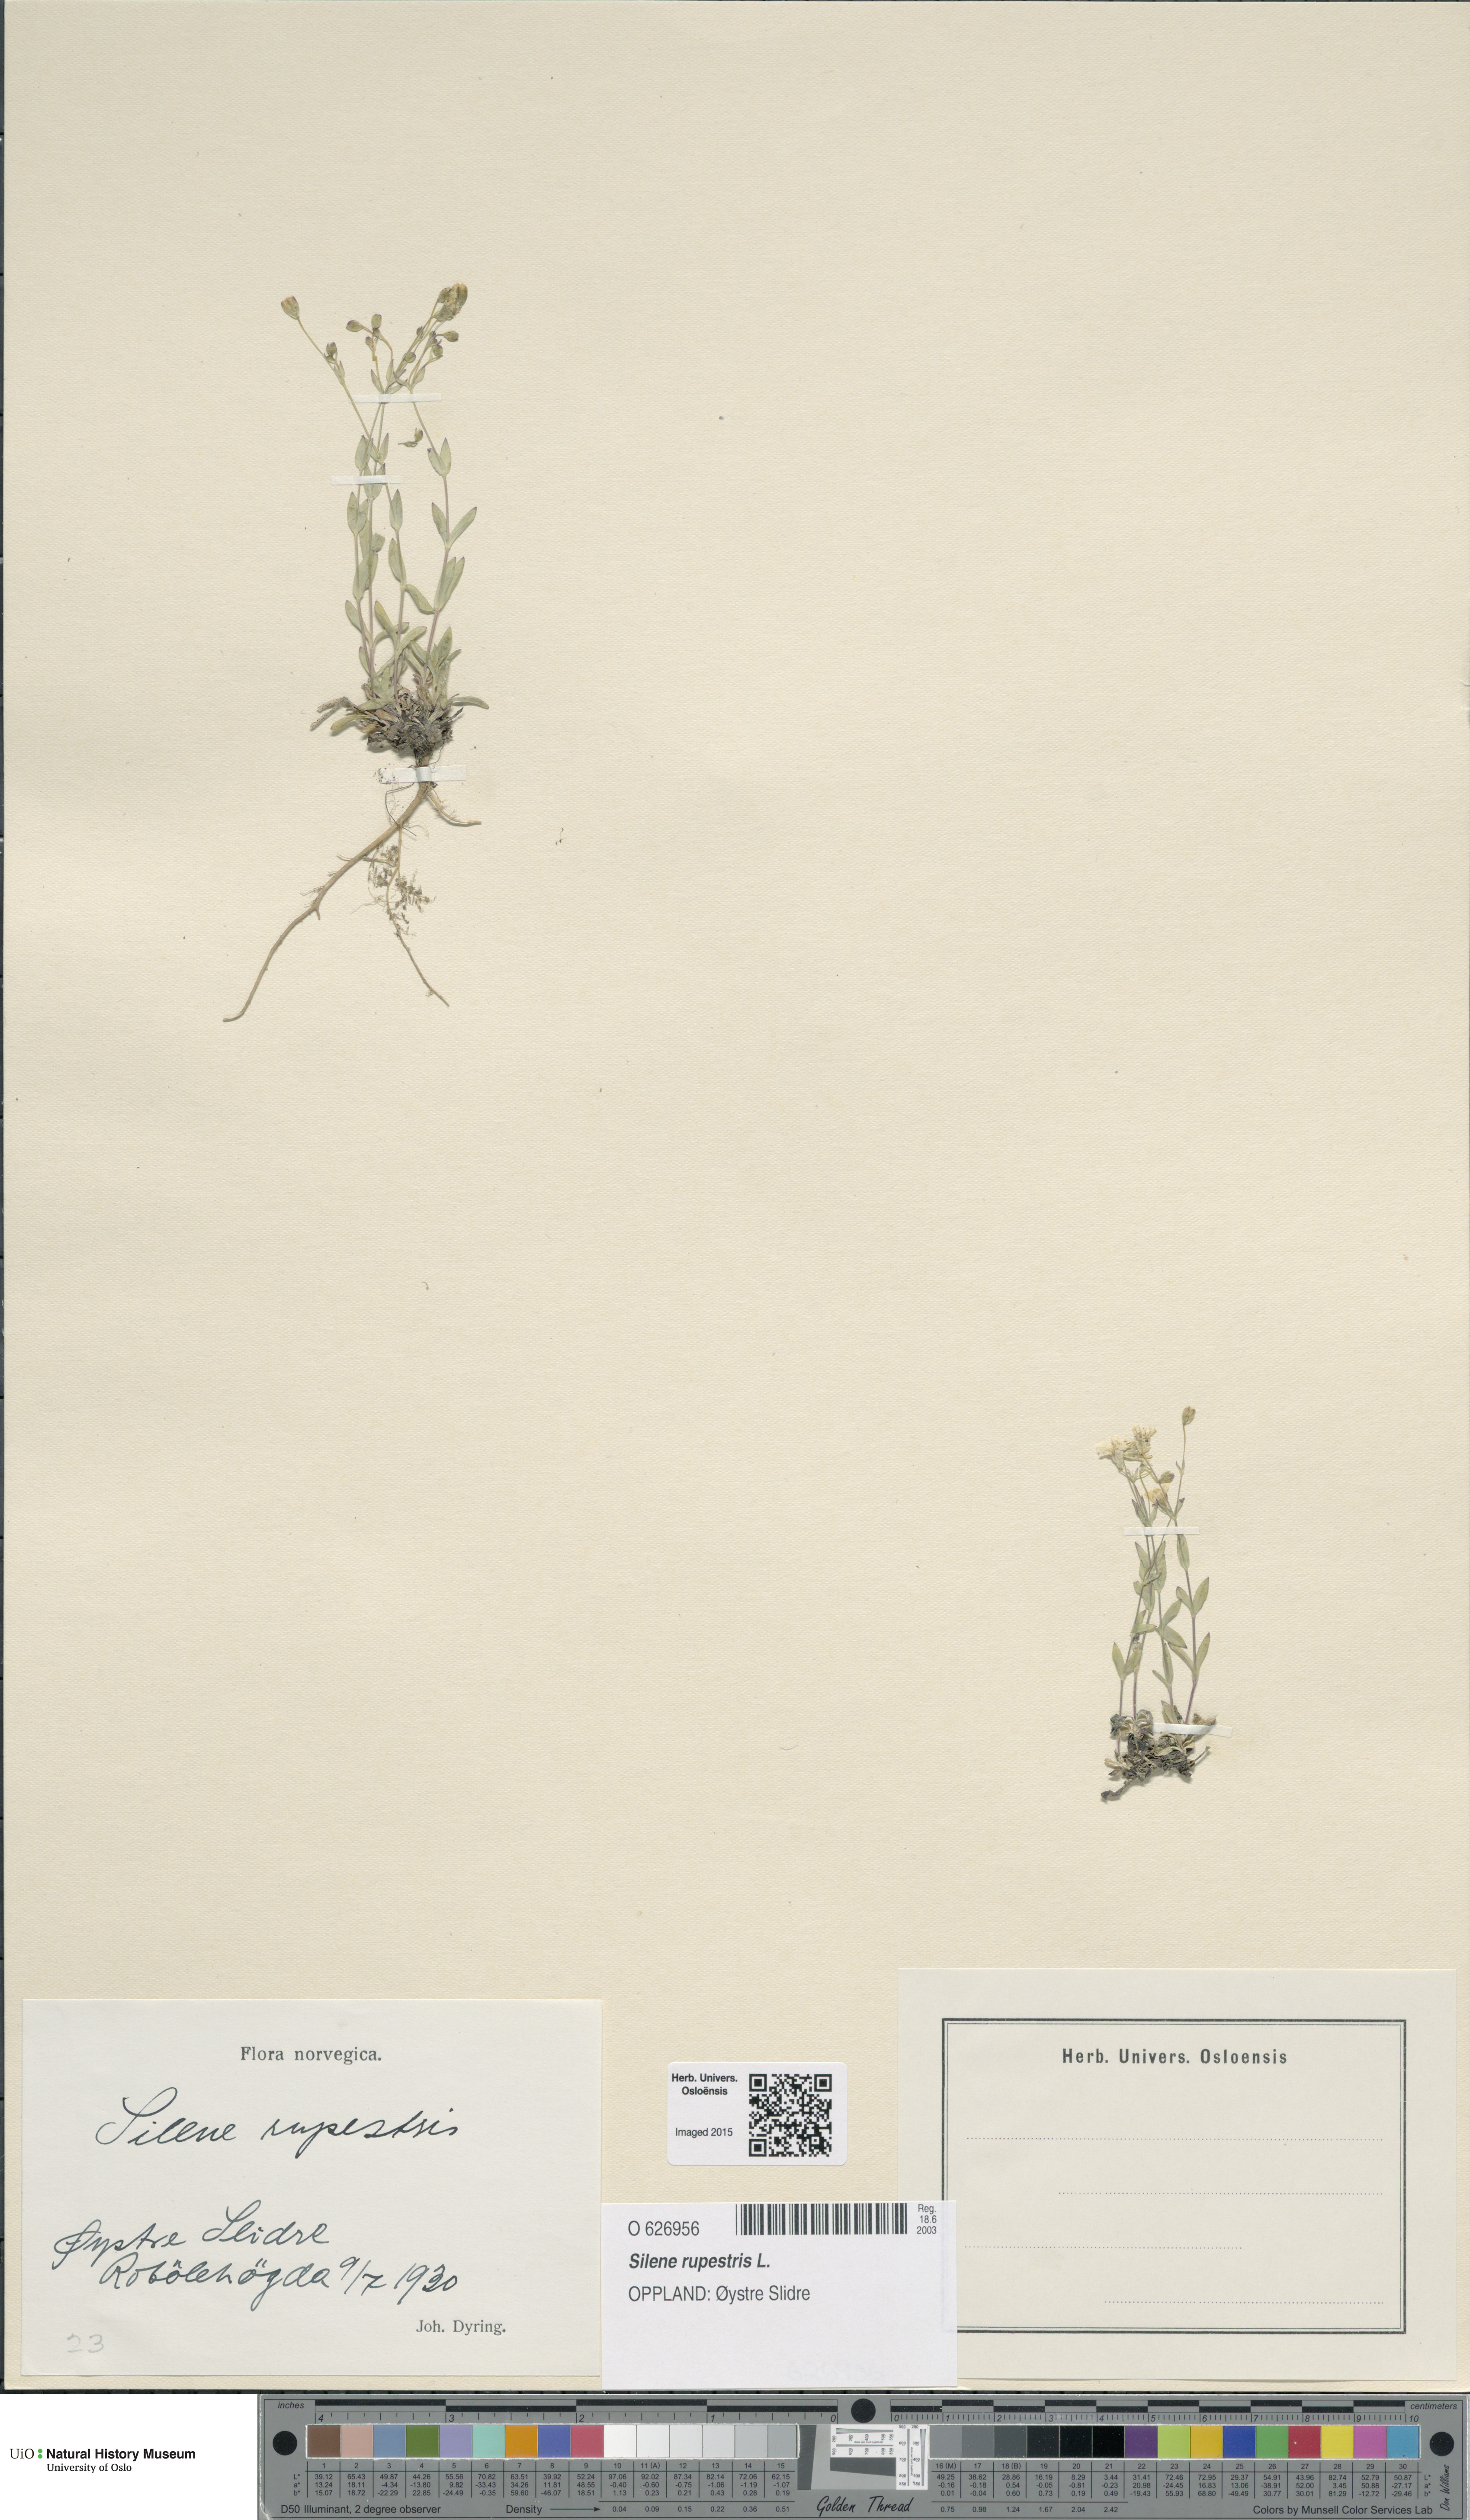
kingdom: Plantae
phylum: Tracheophyta
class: Magnoliopsida
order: Caryophyllales
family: Caryophyllaceae
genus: Atocion
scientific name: Atocion rupestre
